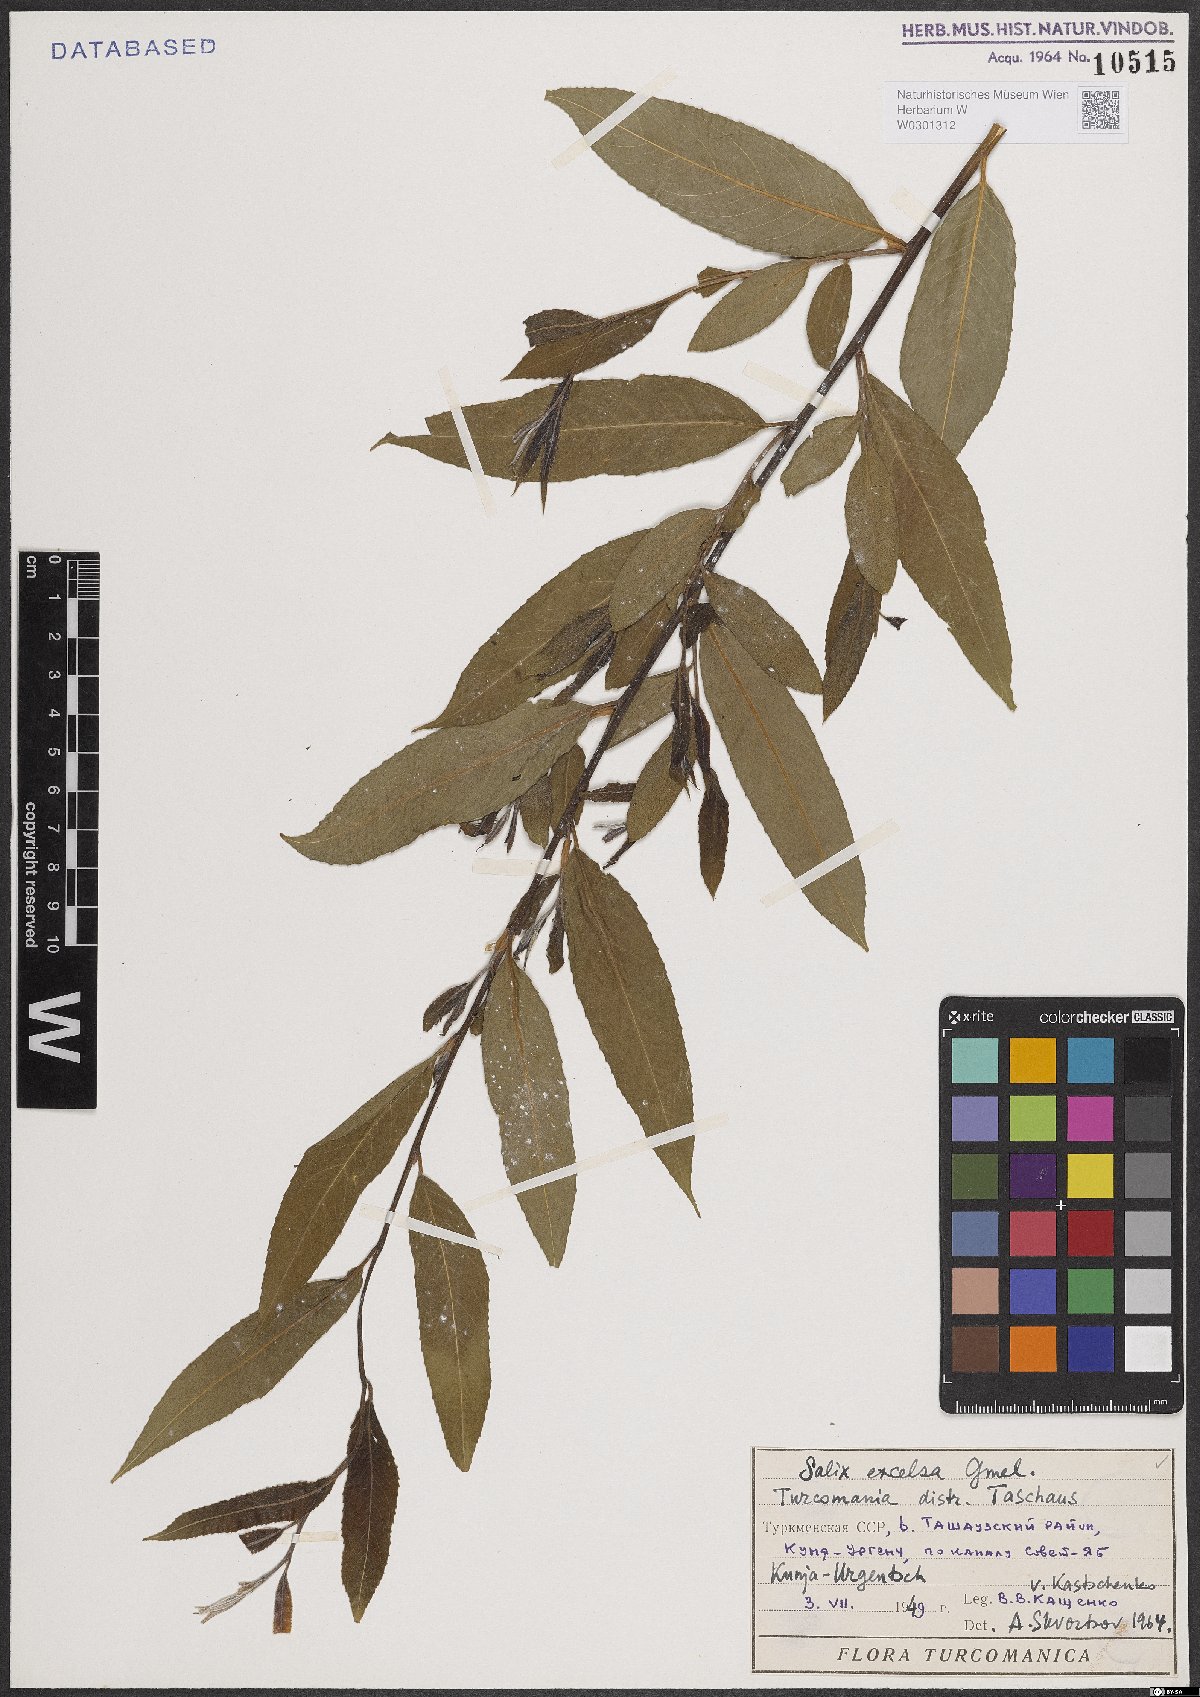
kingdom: Plantae
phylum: Tracheophyta
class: Magnoliopsida
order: Malpighiales
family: Salicaceae
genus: Salix
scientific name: Salix excelsa
